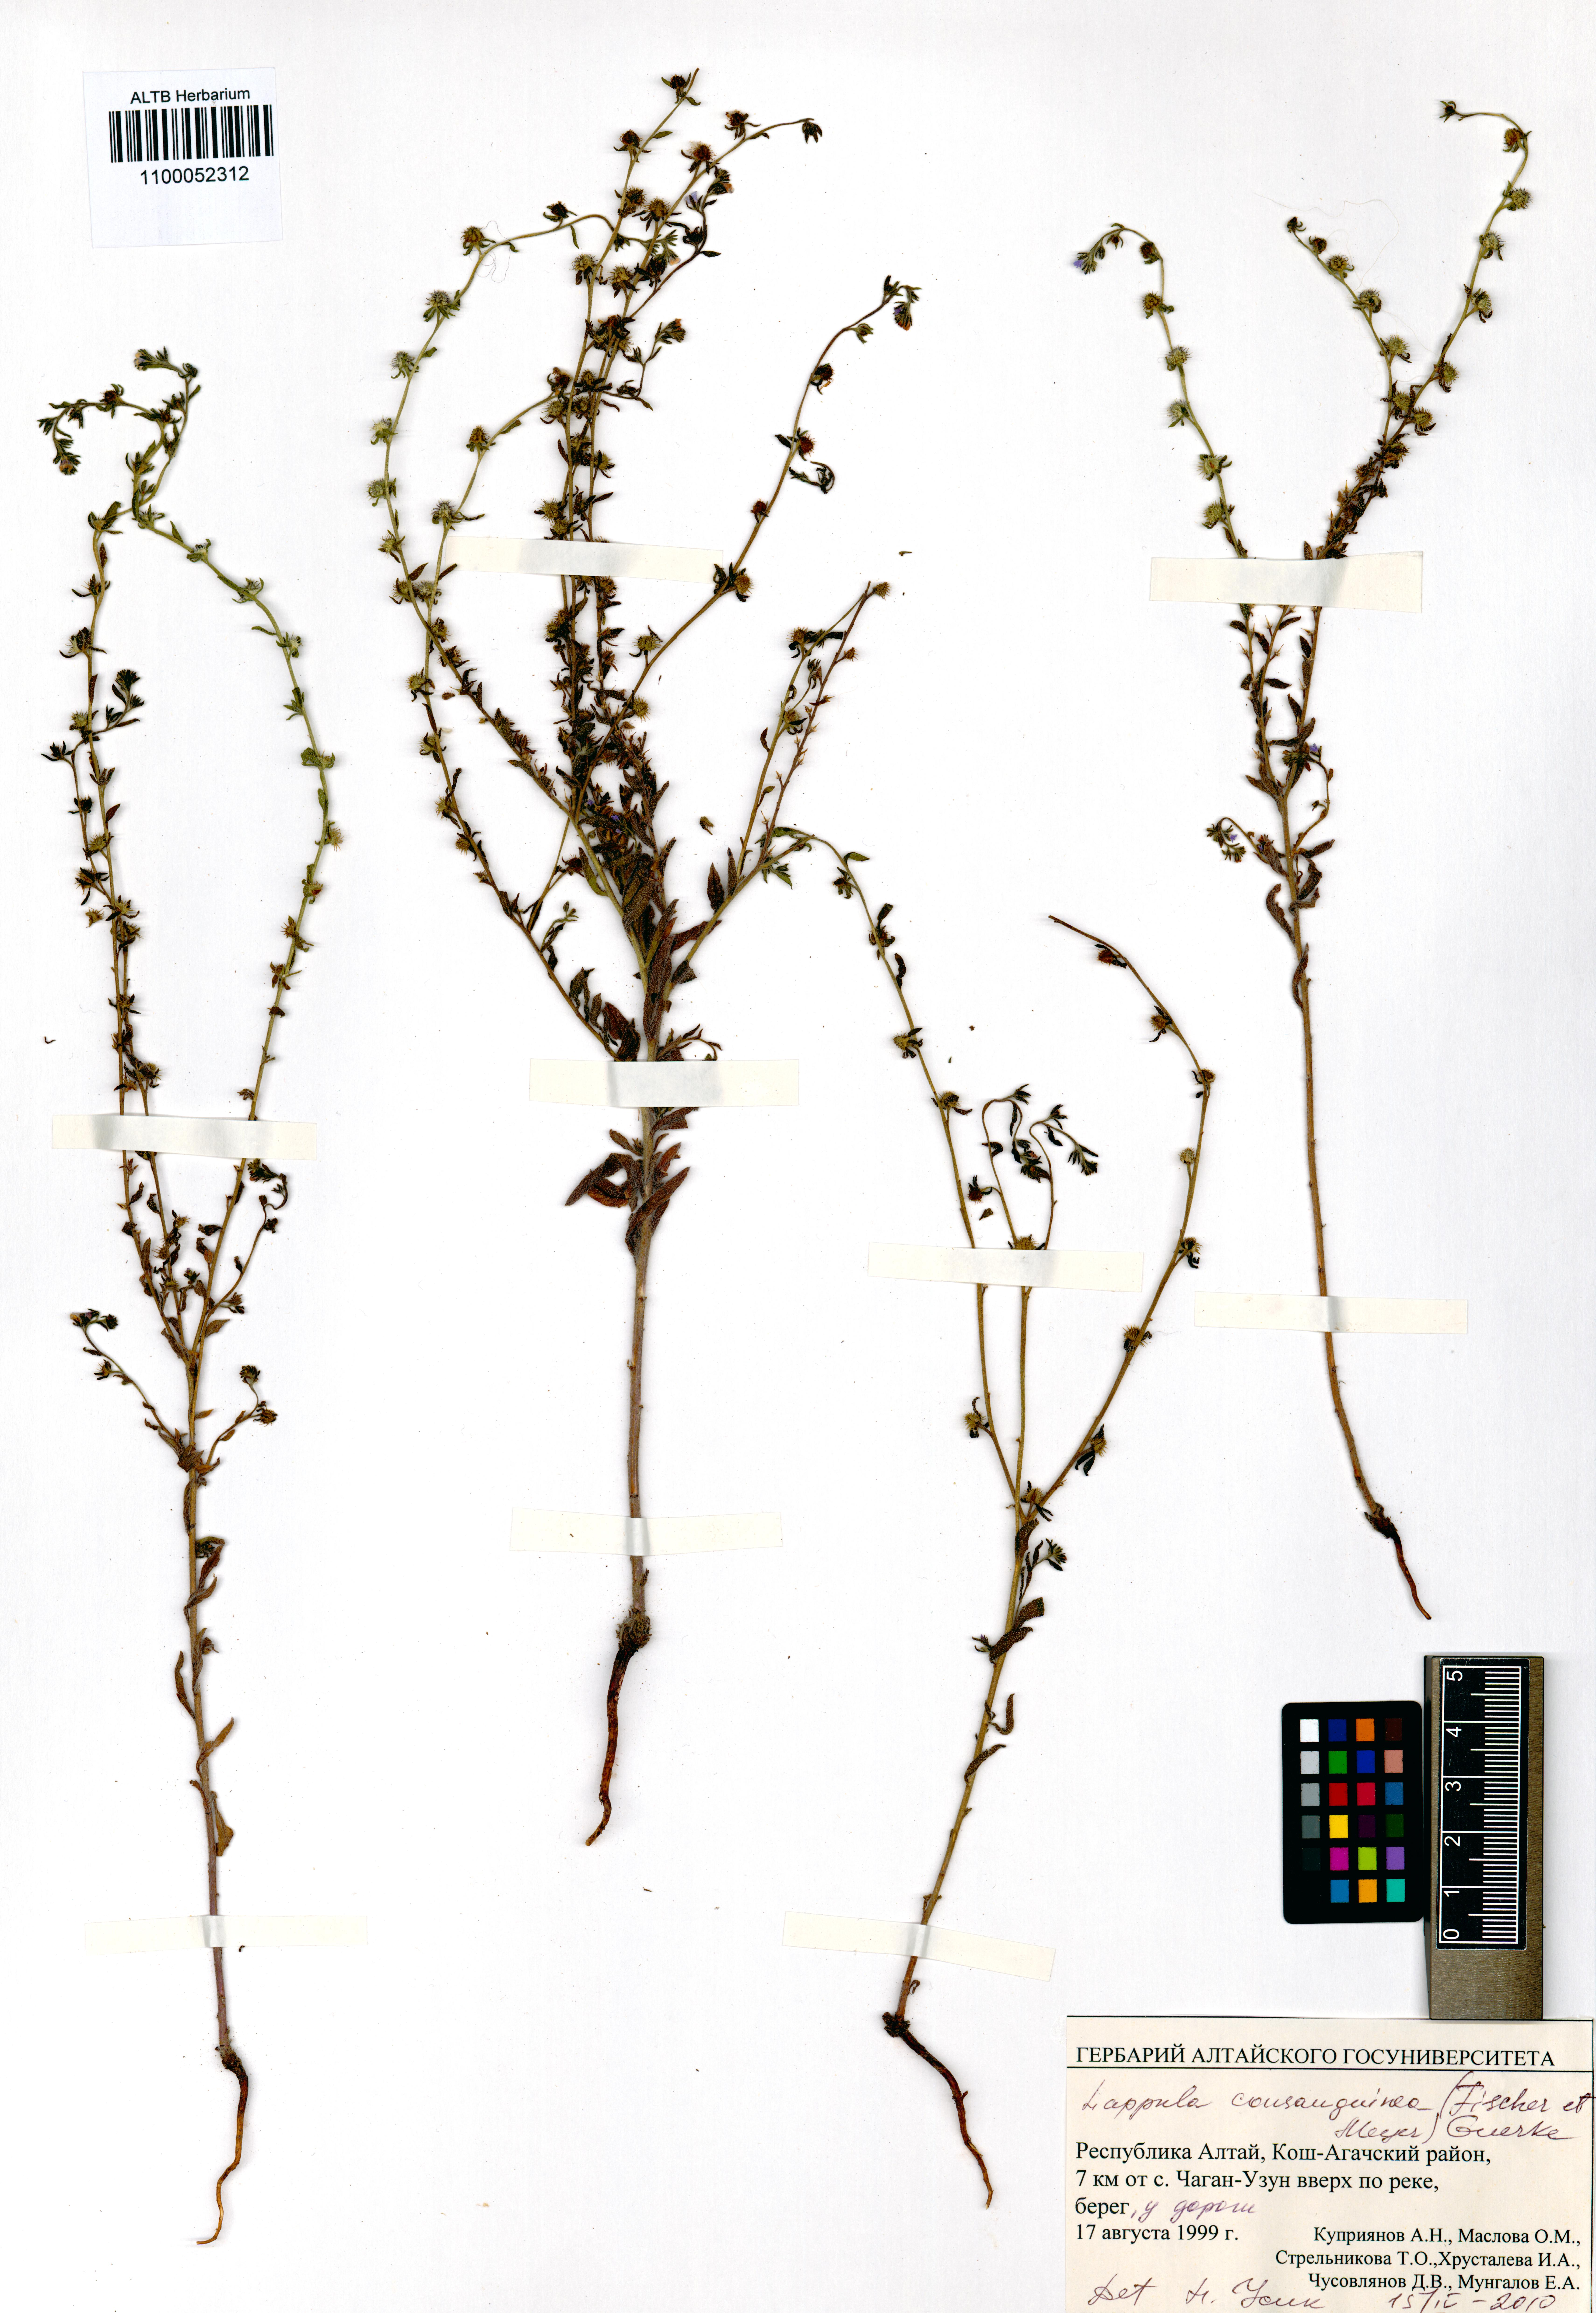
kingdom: Plantae
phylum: Tracheophyta
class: Magnoliopsida
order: Boraginales
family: Boraginaceae
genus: Lappula
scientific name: Lappula squarrosa
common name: European stickseed
